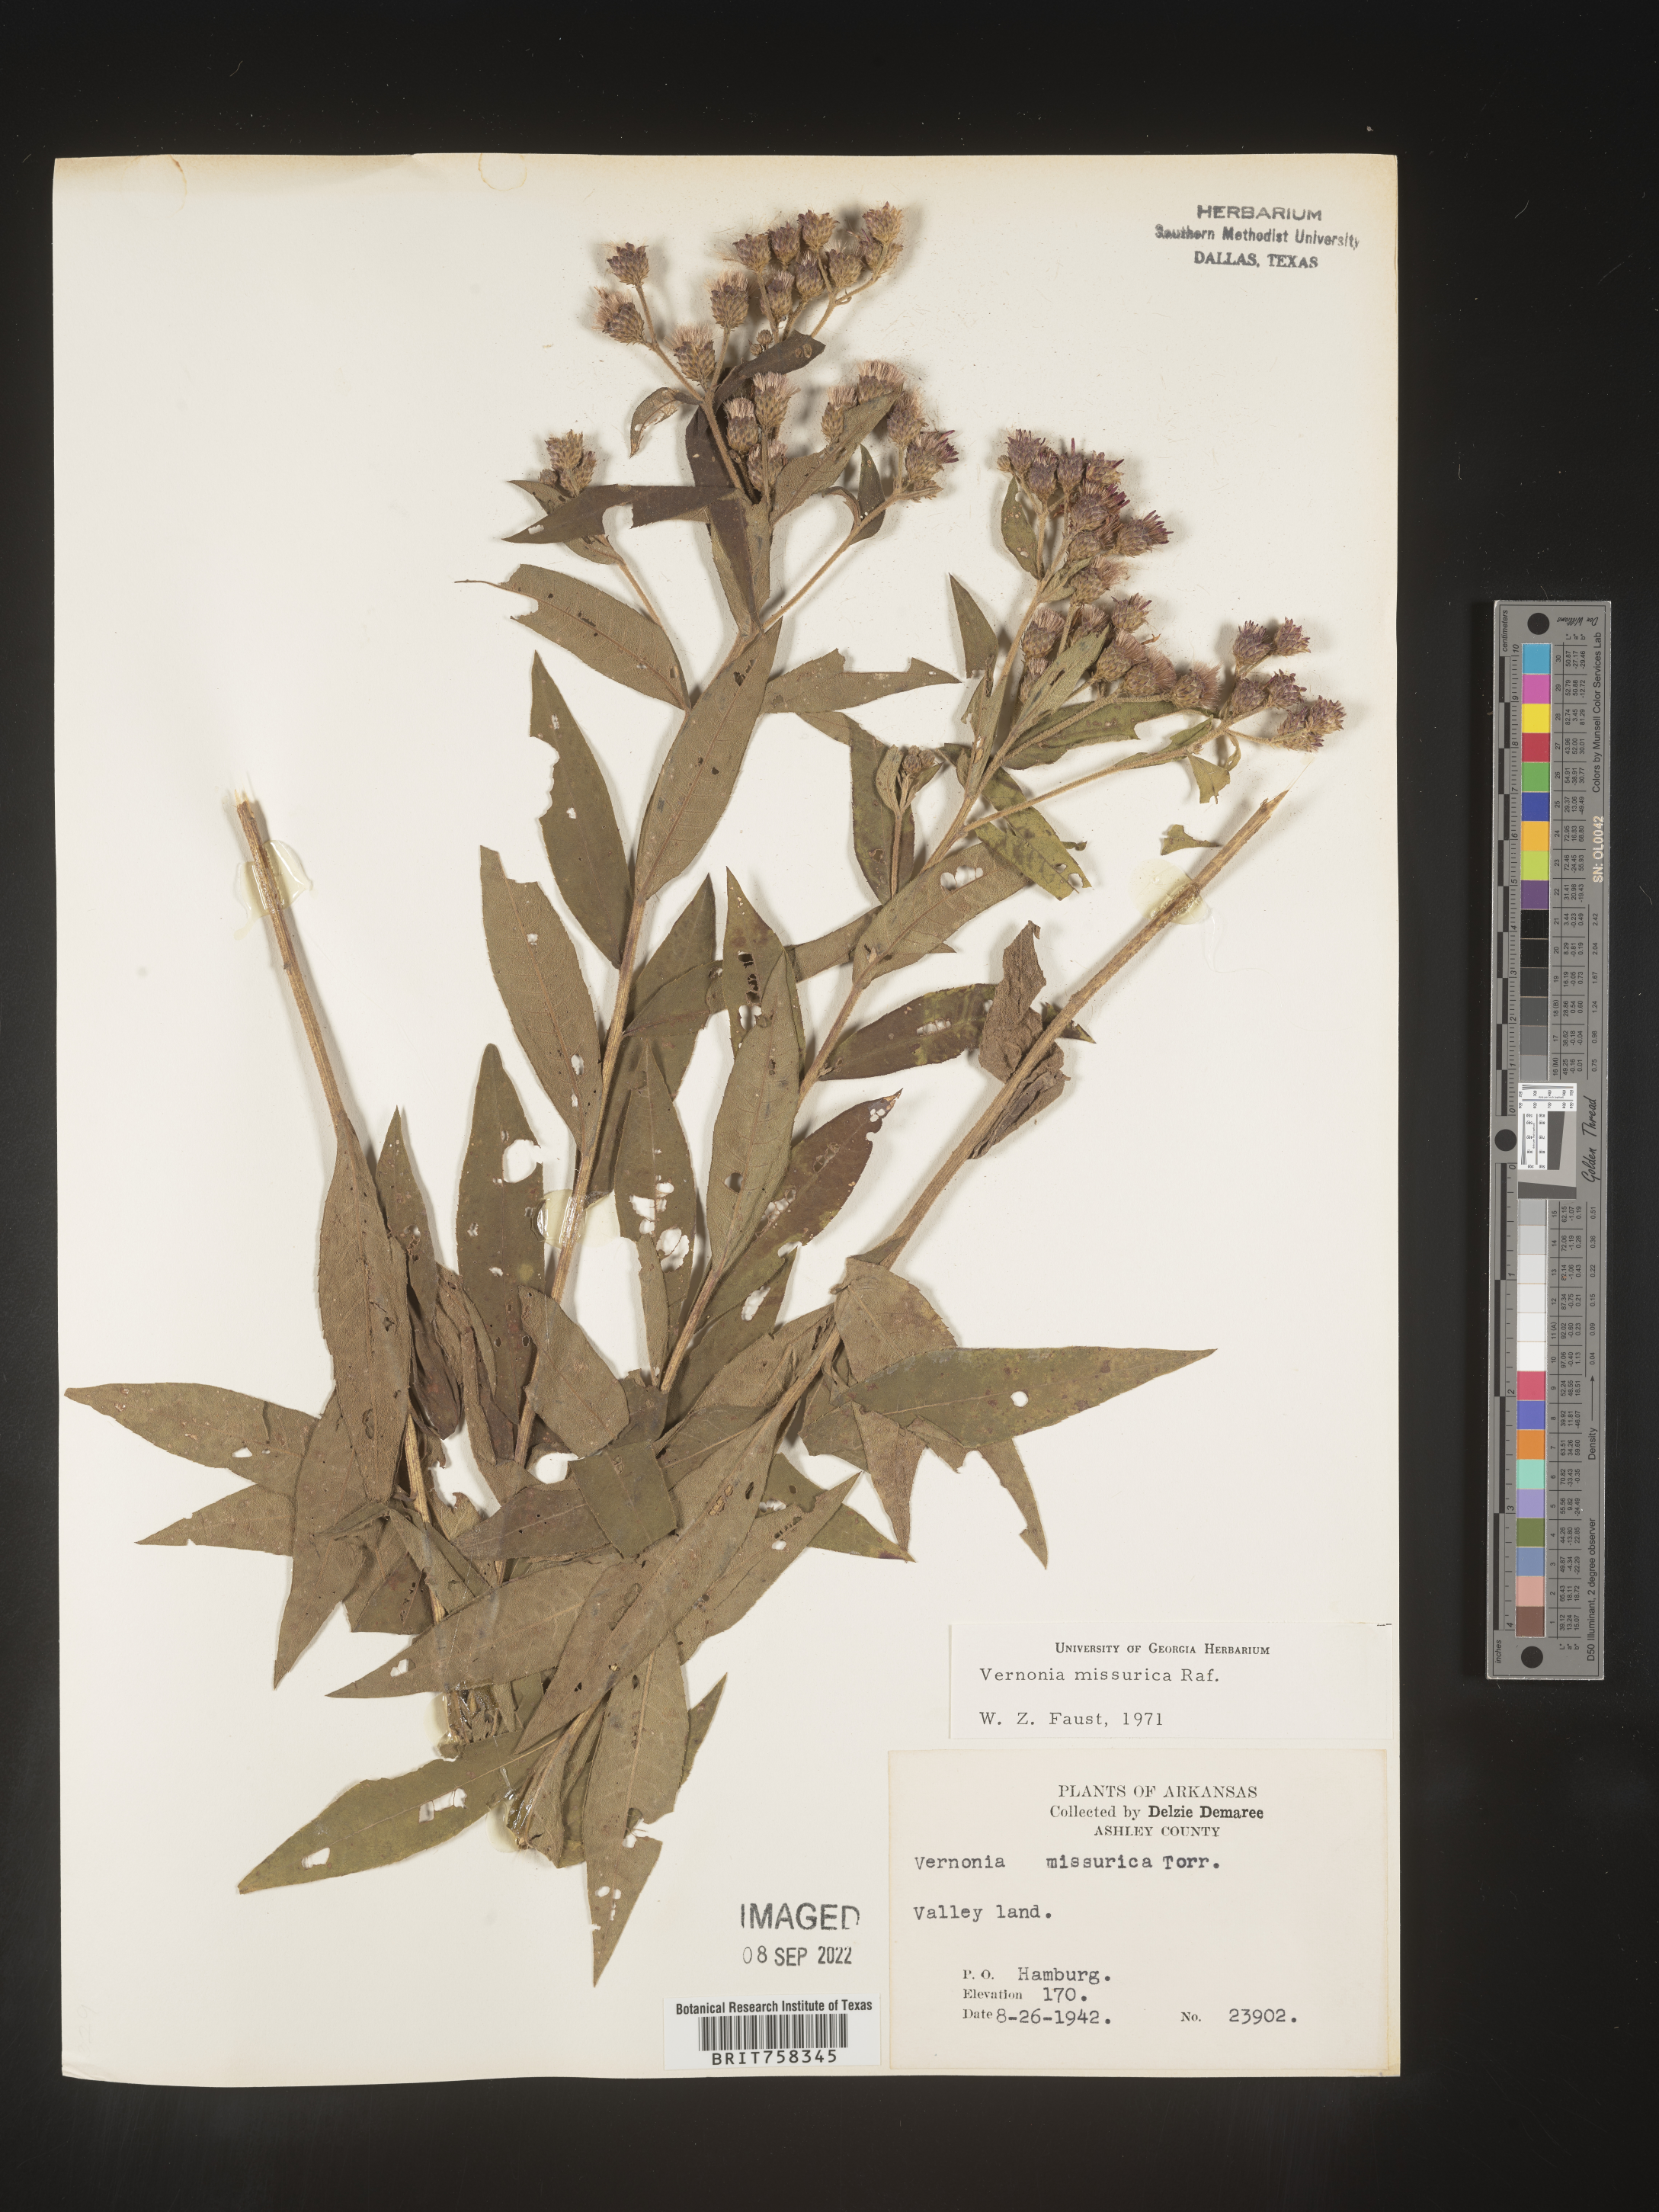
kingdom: Plantae
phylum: Tracheophyta
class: Magnoliopsida
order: Asterales
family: Asteraceae
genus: Vernonia
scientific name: Vernonia missurica
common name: Missouri ironweed
